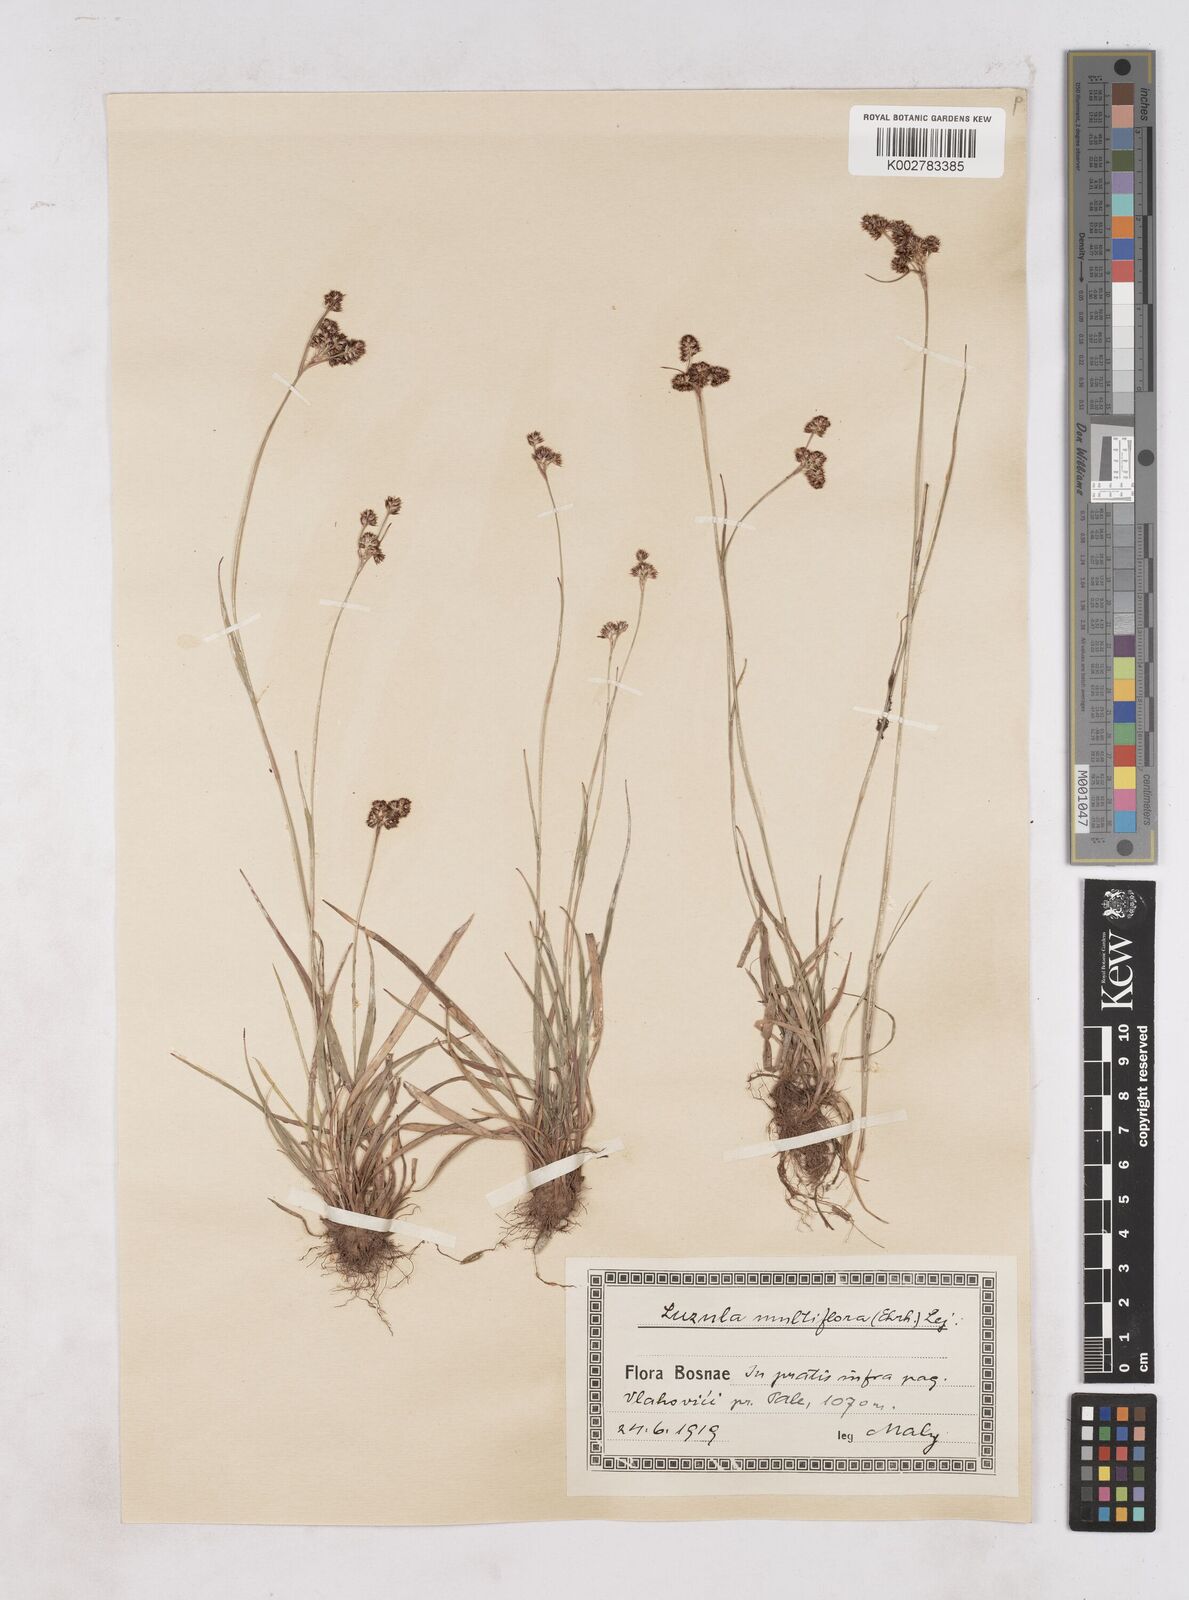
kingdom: Plantae
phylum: Tracheophyta
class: Liliopsida
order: Poales
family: Juncaceae
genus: Luzula
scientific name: Luzula multiflora
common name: Heath wood-rush
